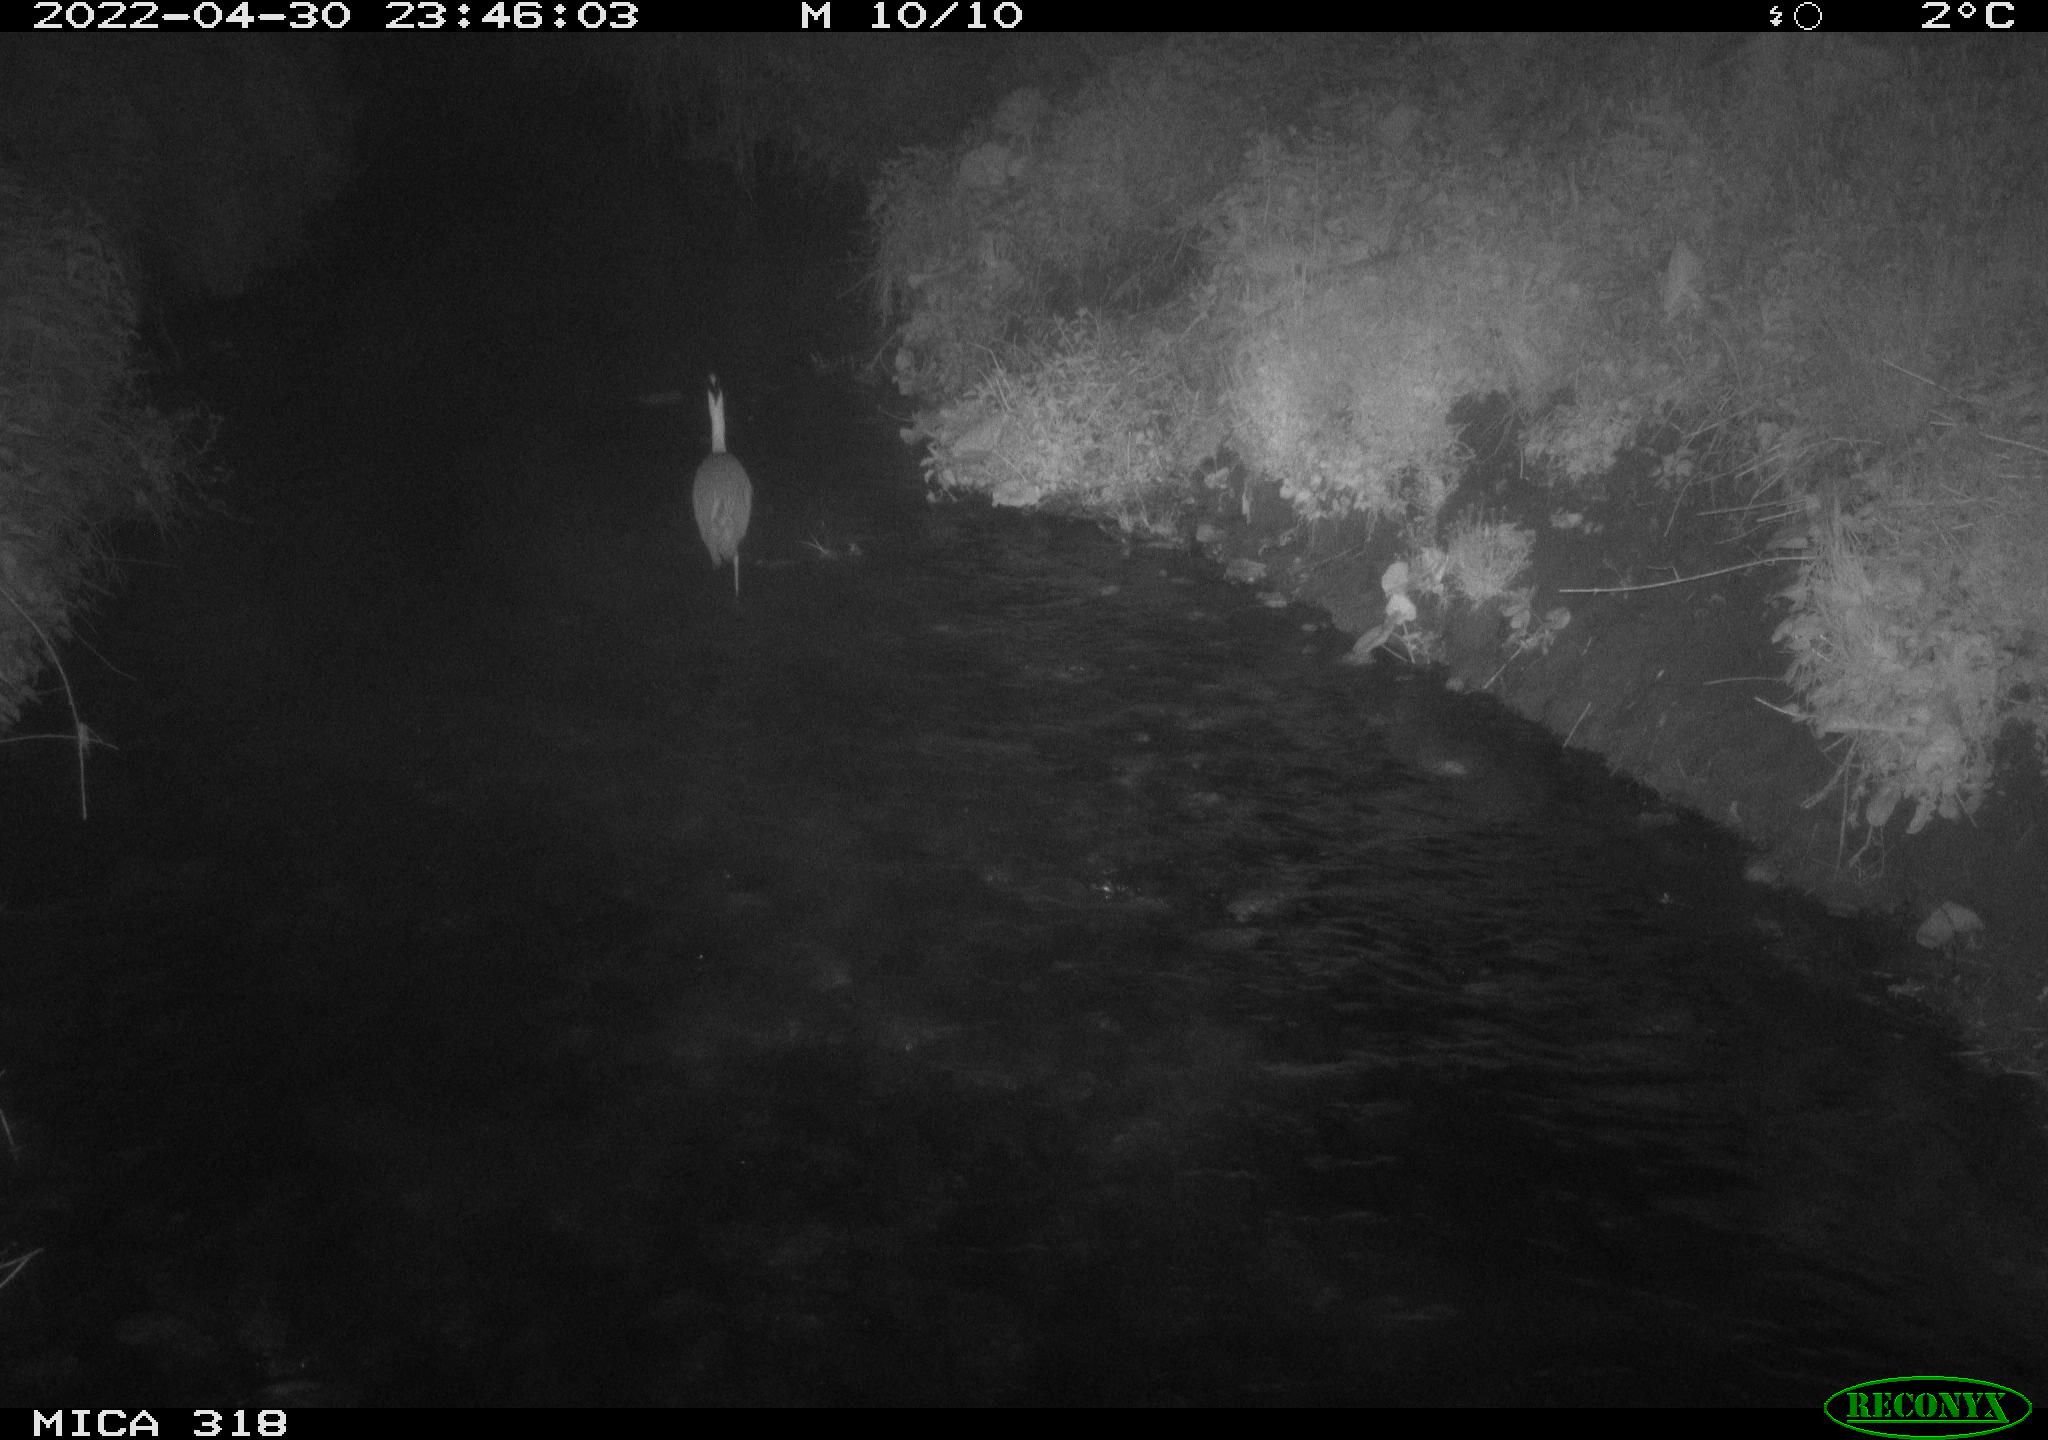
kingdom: Animalia
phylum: Chordata
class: Aves
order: Pelecaniformes
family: Ardeidae
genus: Ardea
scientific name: Ardea
